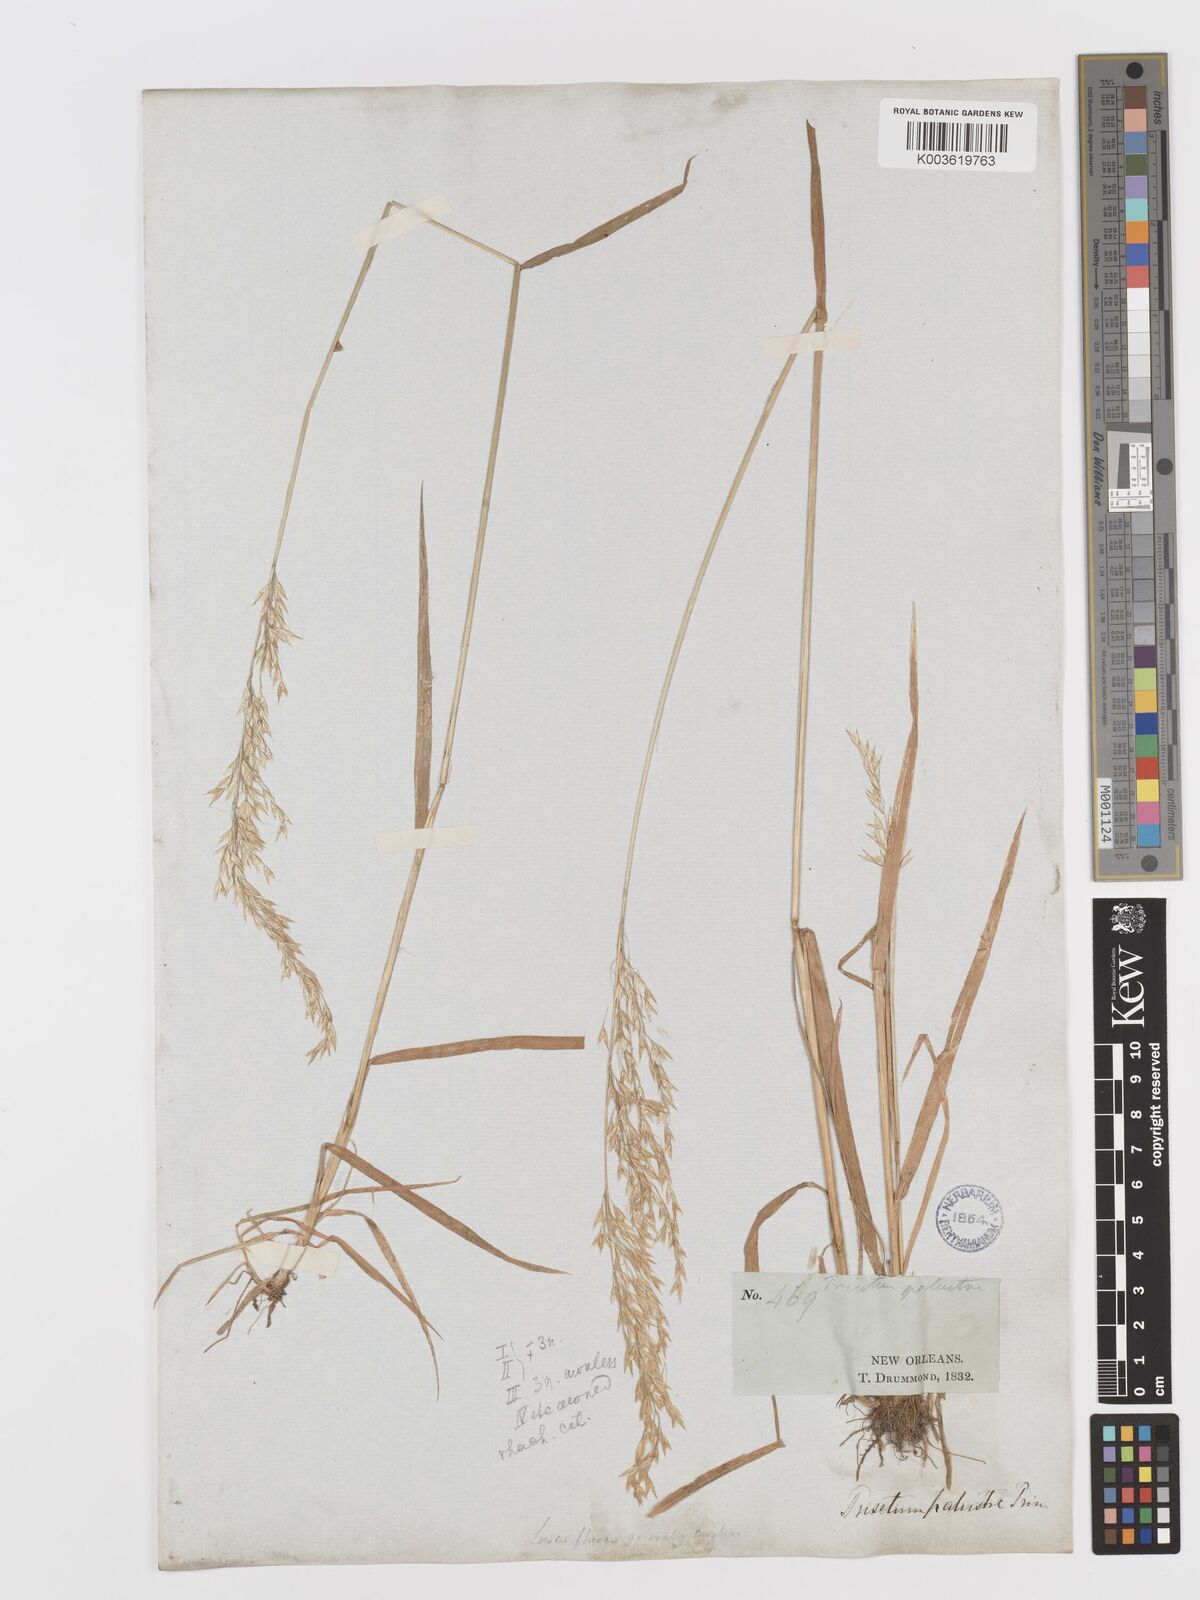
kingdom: Plantae
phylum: Tracheophyta
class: Liliopsida
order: Poales
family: Poaceae
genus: Sphenopholis
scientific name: Sphenopholis pensylvanica
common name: Swamp oats
